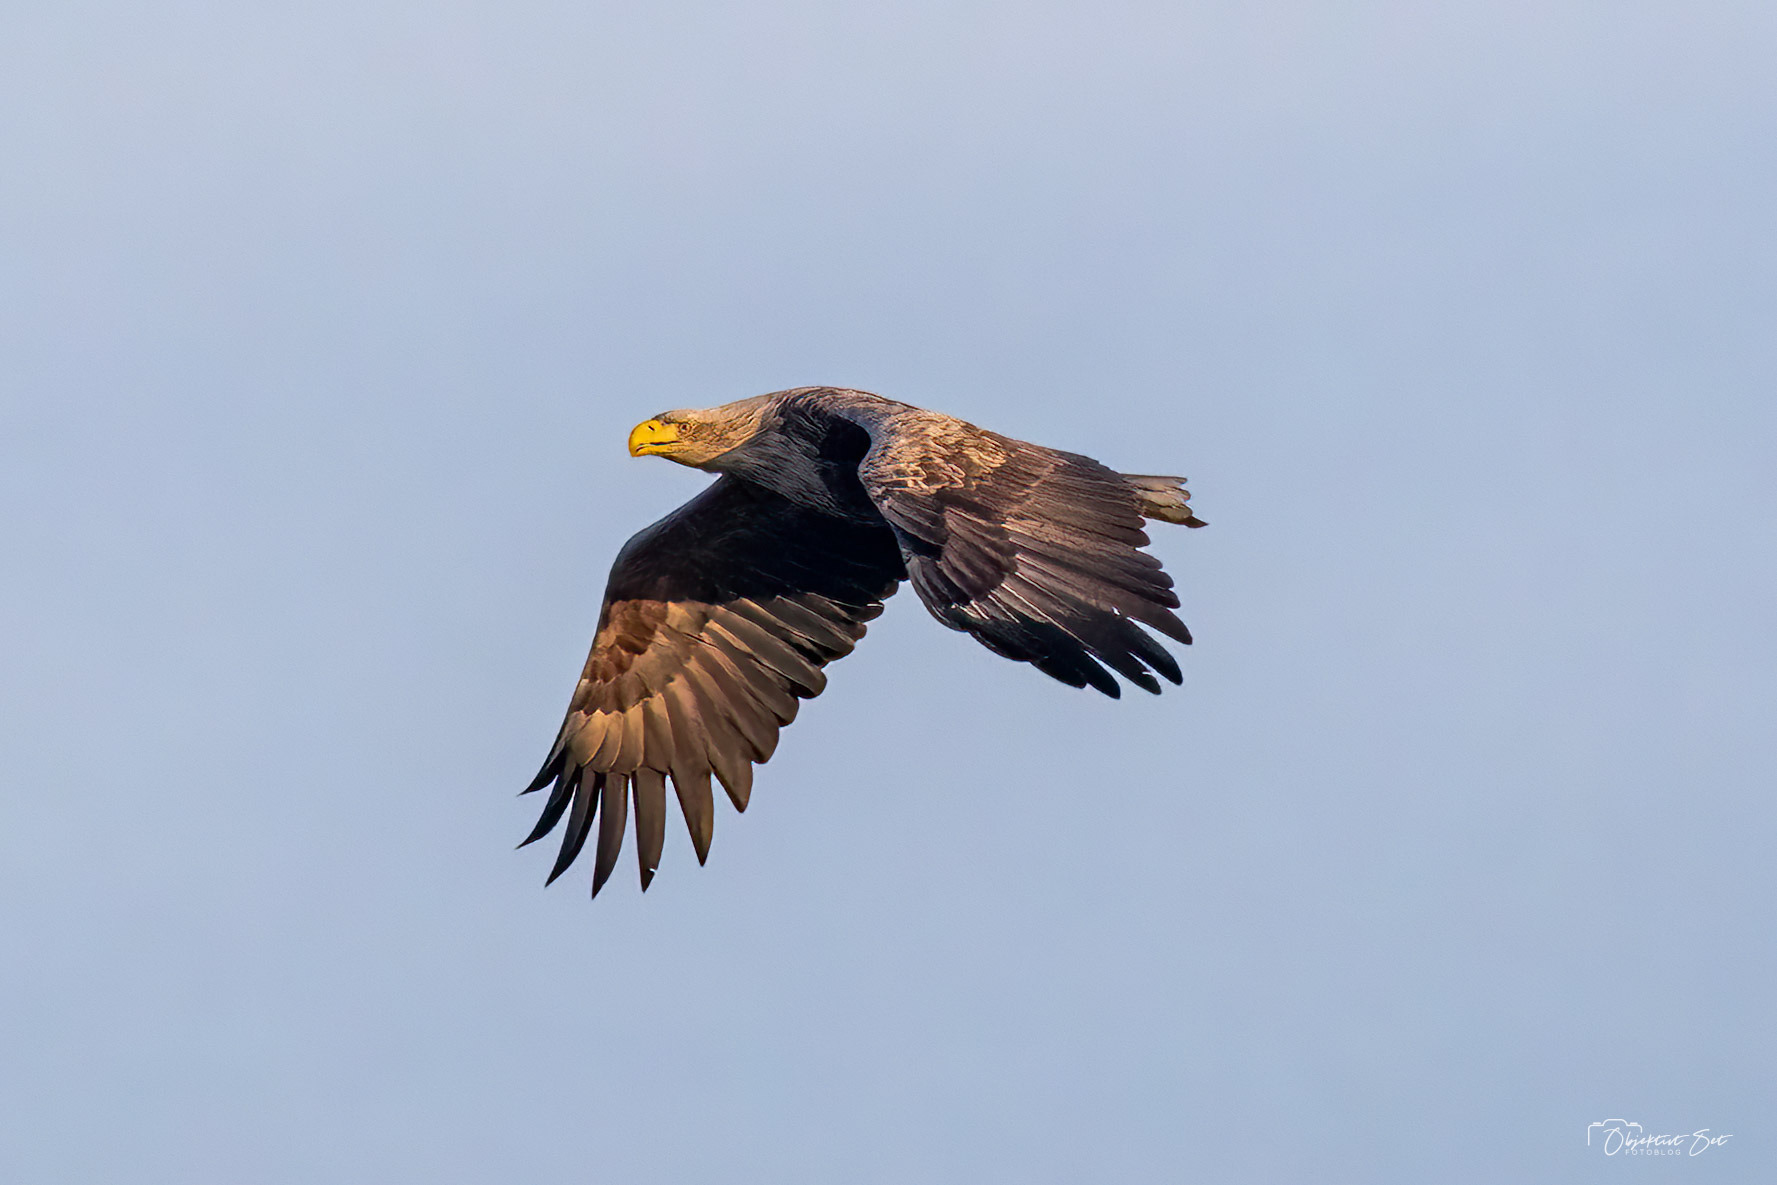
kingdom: Animalia
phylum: Chordata
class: Aves
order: Accipitriformes
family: Accipitridae
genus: Haliaeetus
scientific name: Haliaeetus albicilla
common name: Havørn
